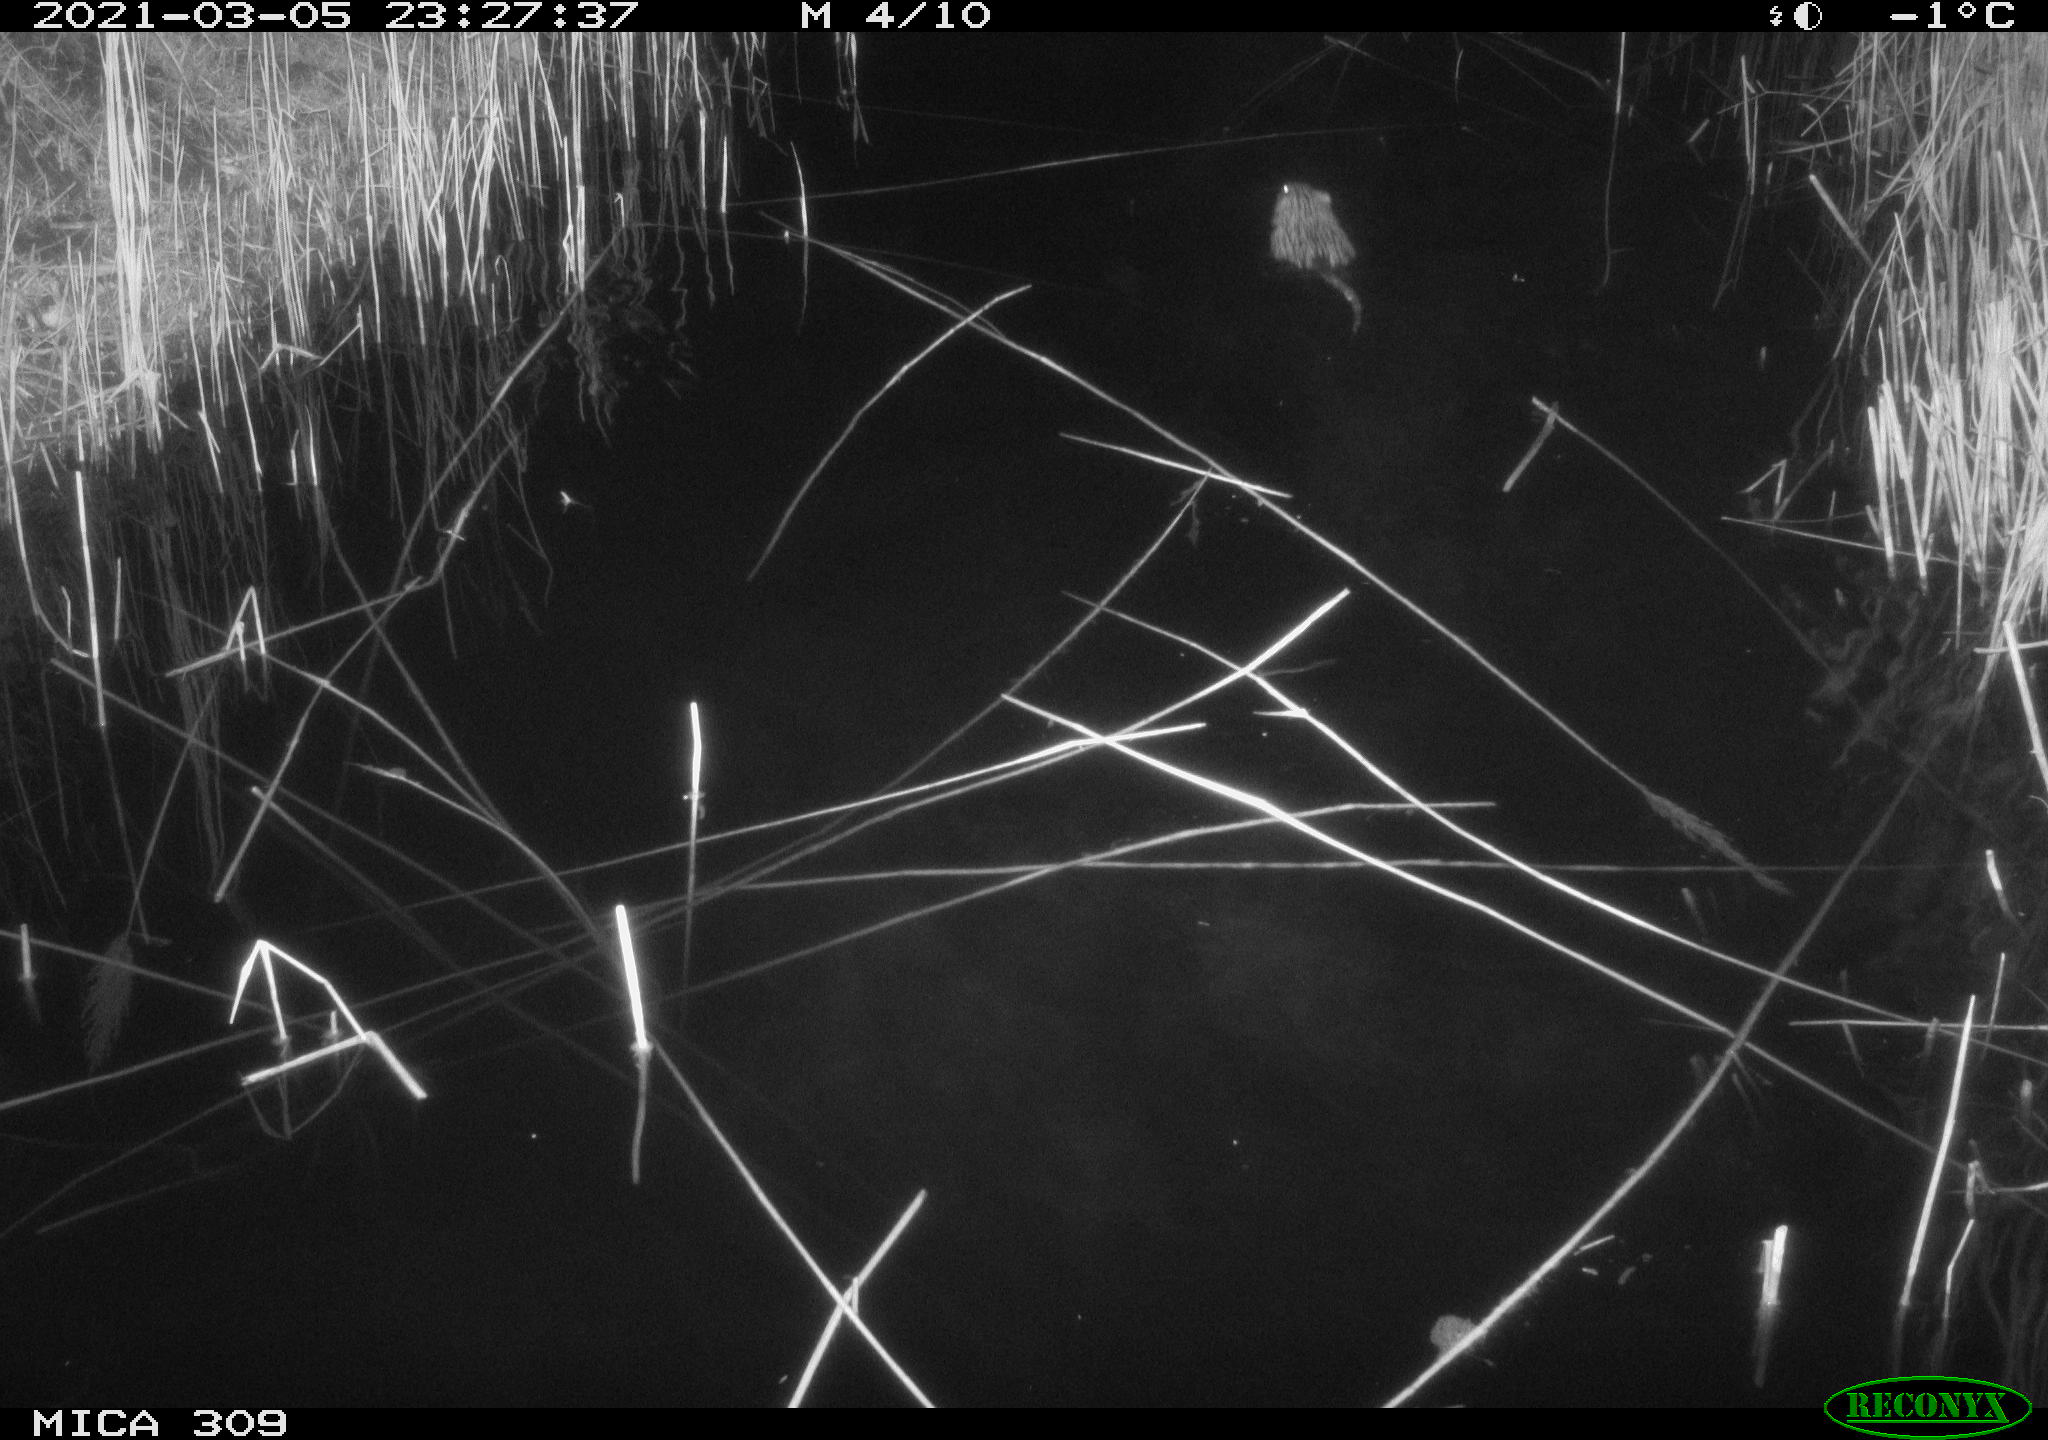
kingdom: Animalia
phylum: Chordata
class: Mammalia
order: Rodentia
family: Cricetidae
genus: Ondatra
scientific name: Ondatra zibethicus
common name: Muskrat
